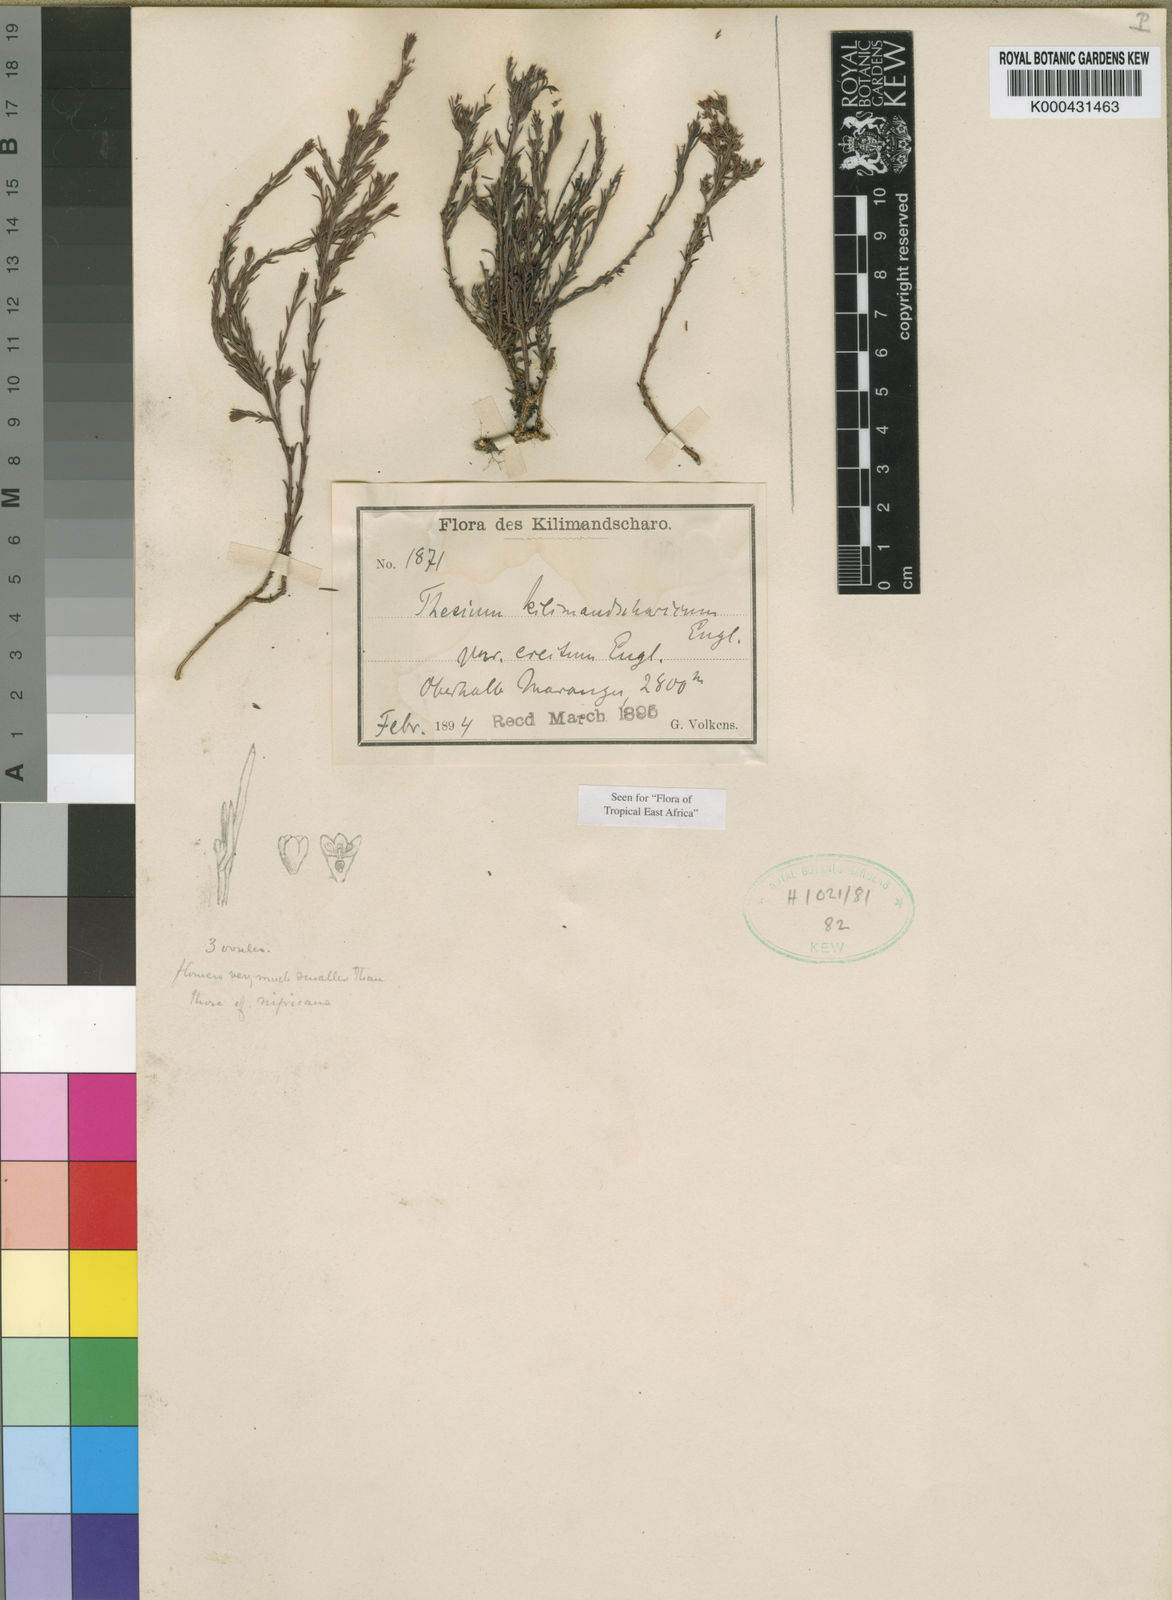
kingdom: Plantae
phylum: Tracheophyta
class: Magnoliopsida
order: Santalales
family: Thesiaceae
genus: Thesium
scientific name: Thesium kilimandscharicum
